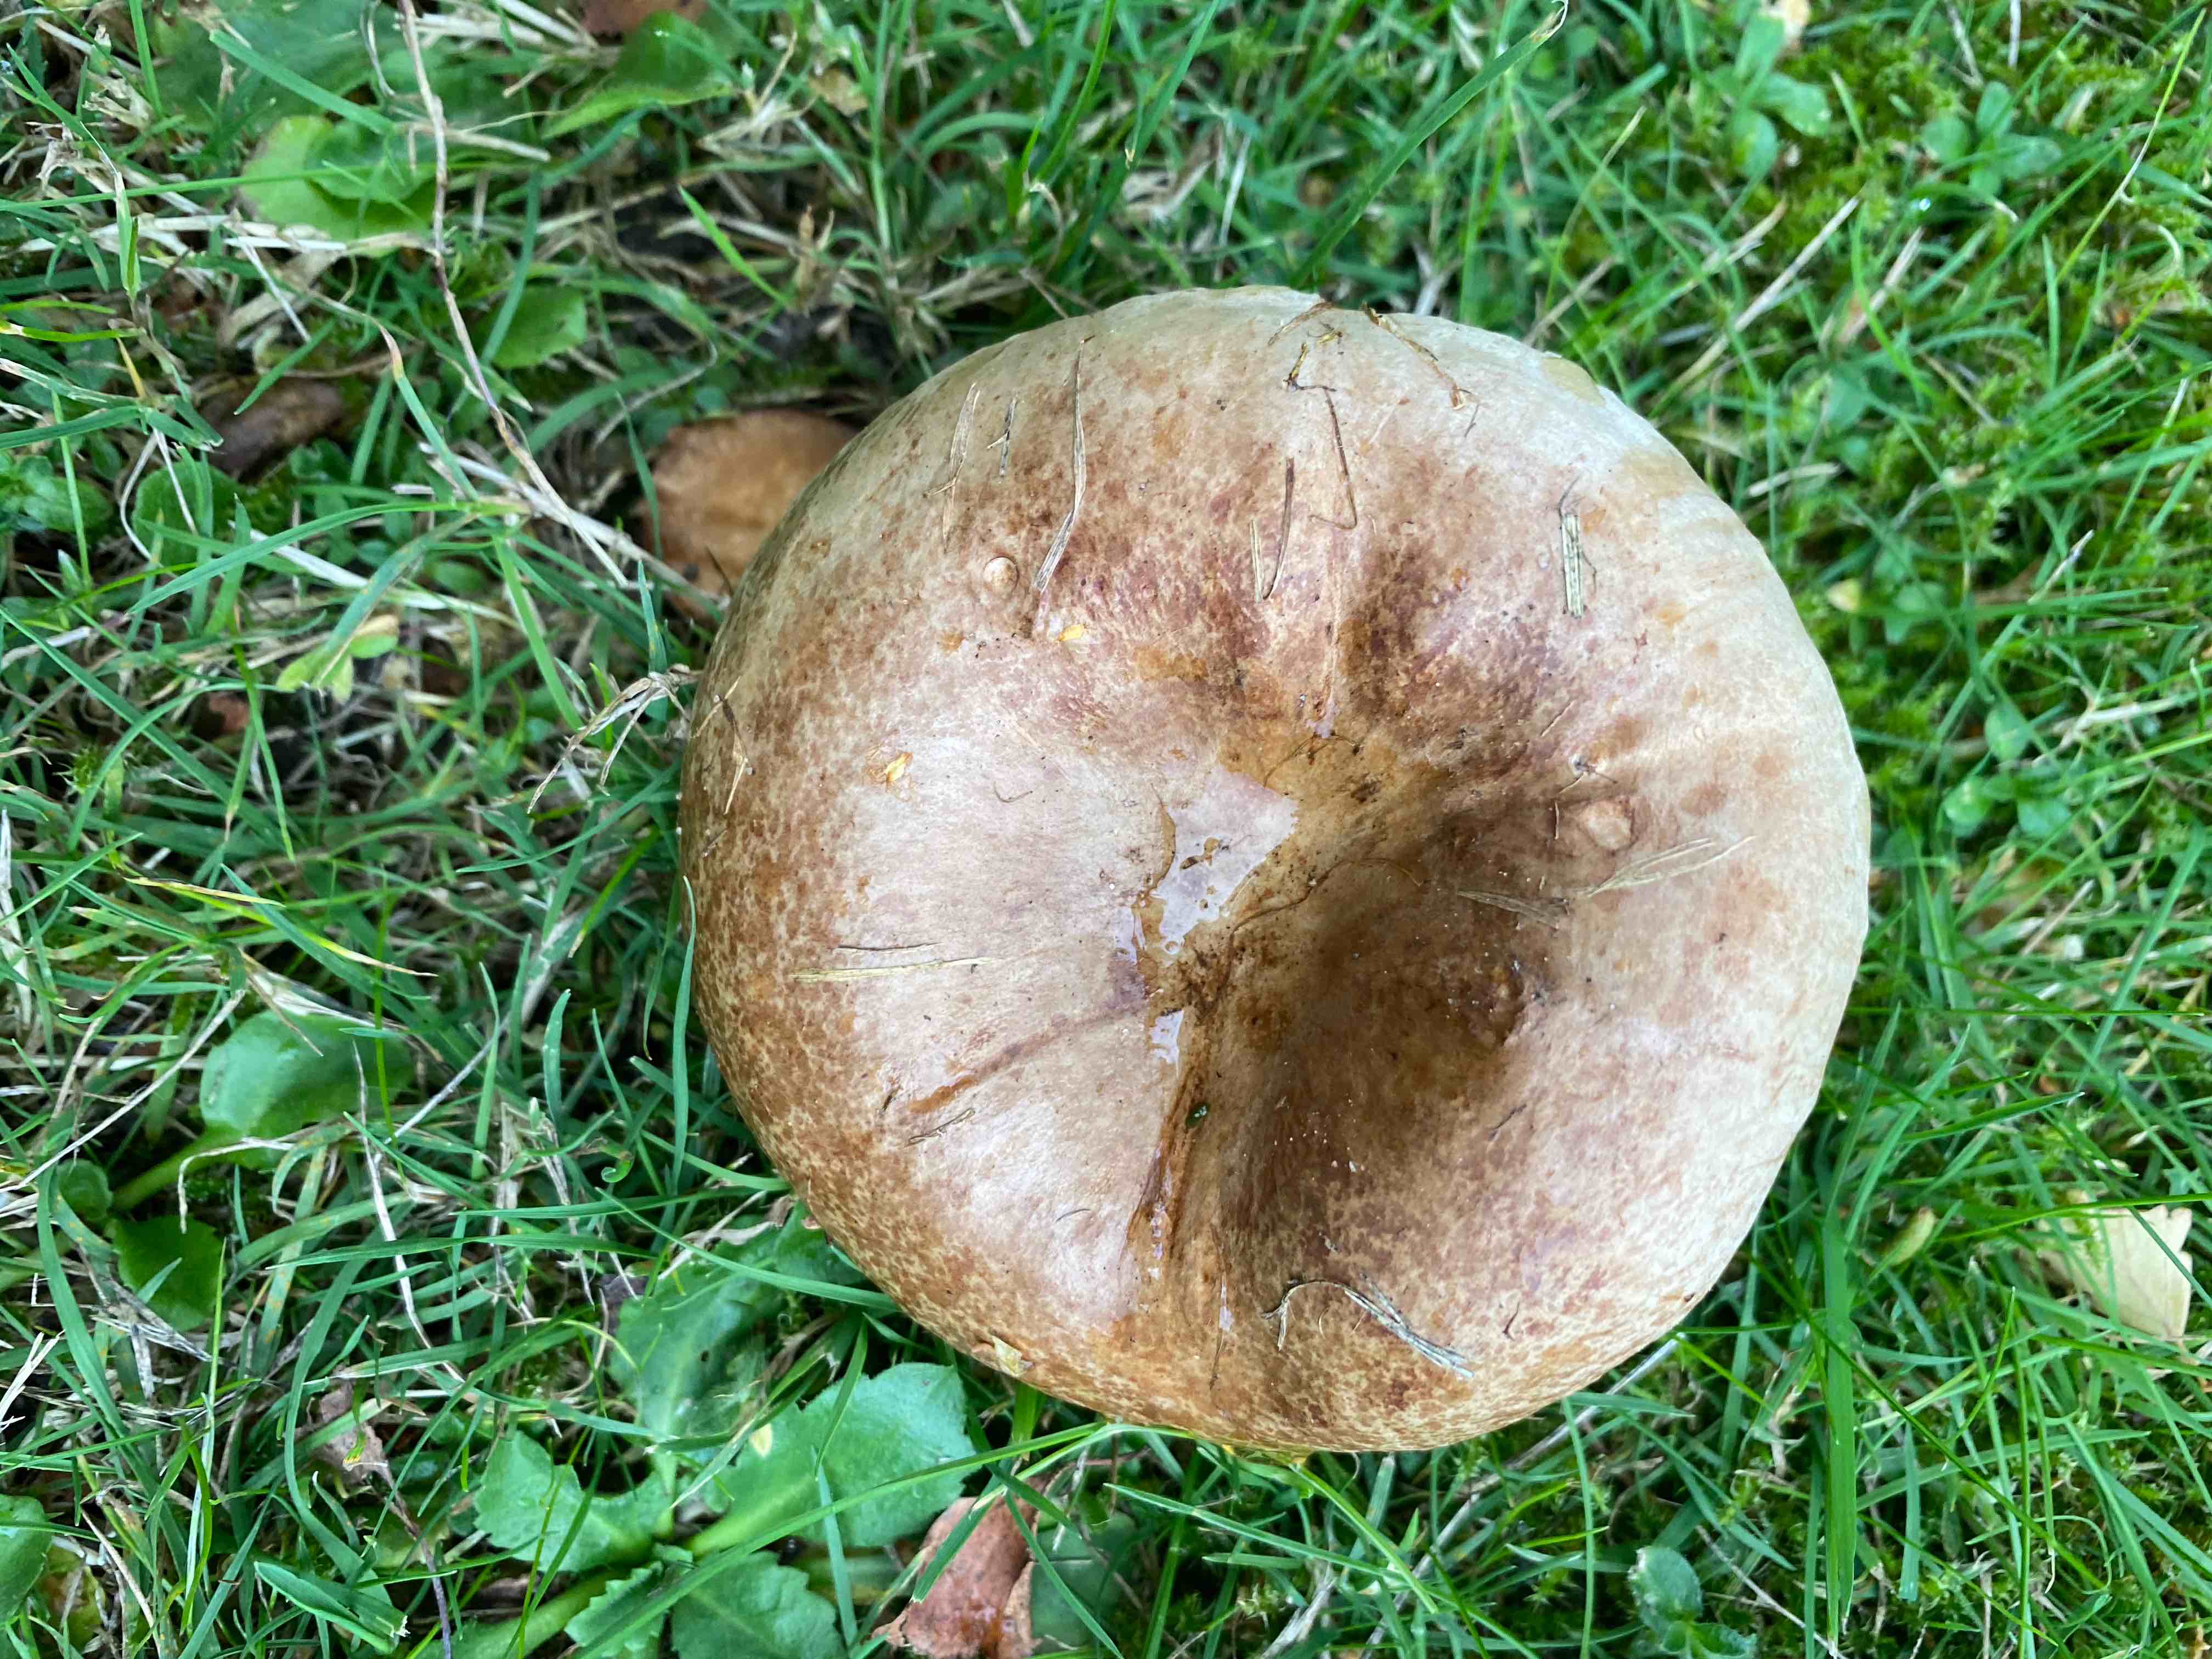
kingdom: Fungi
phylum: Basidiomycota
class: Agaricomycetes
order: Boletales
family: Paxillaceae
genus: Paxillus
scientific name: Paxillus
